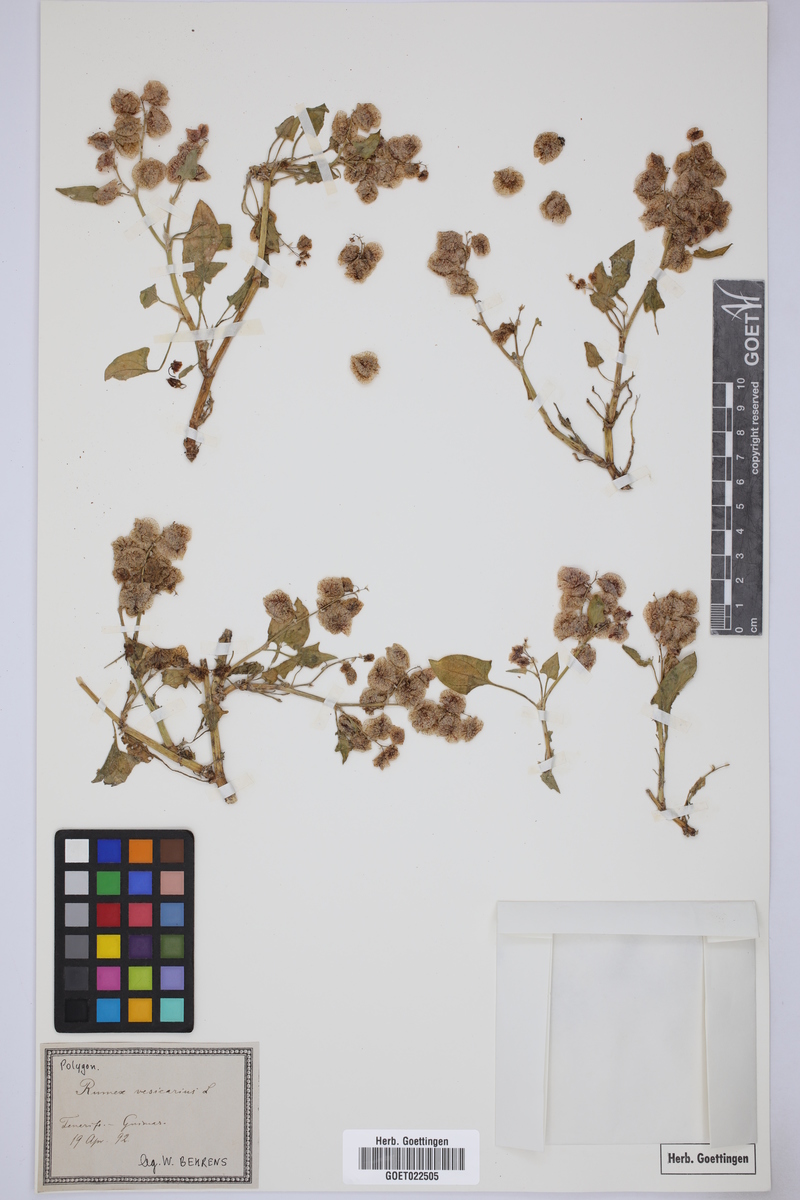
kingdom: Plantae
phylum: Tracheophyta
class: Magnoliopsida
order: Caryophyllales
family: Polygonaceae
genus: Rumex
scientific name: Rumex vesicarius
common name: Bladder dock
